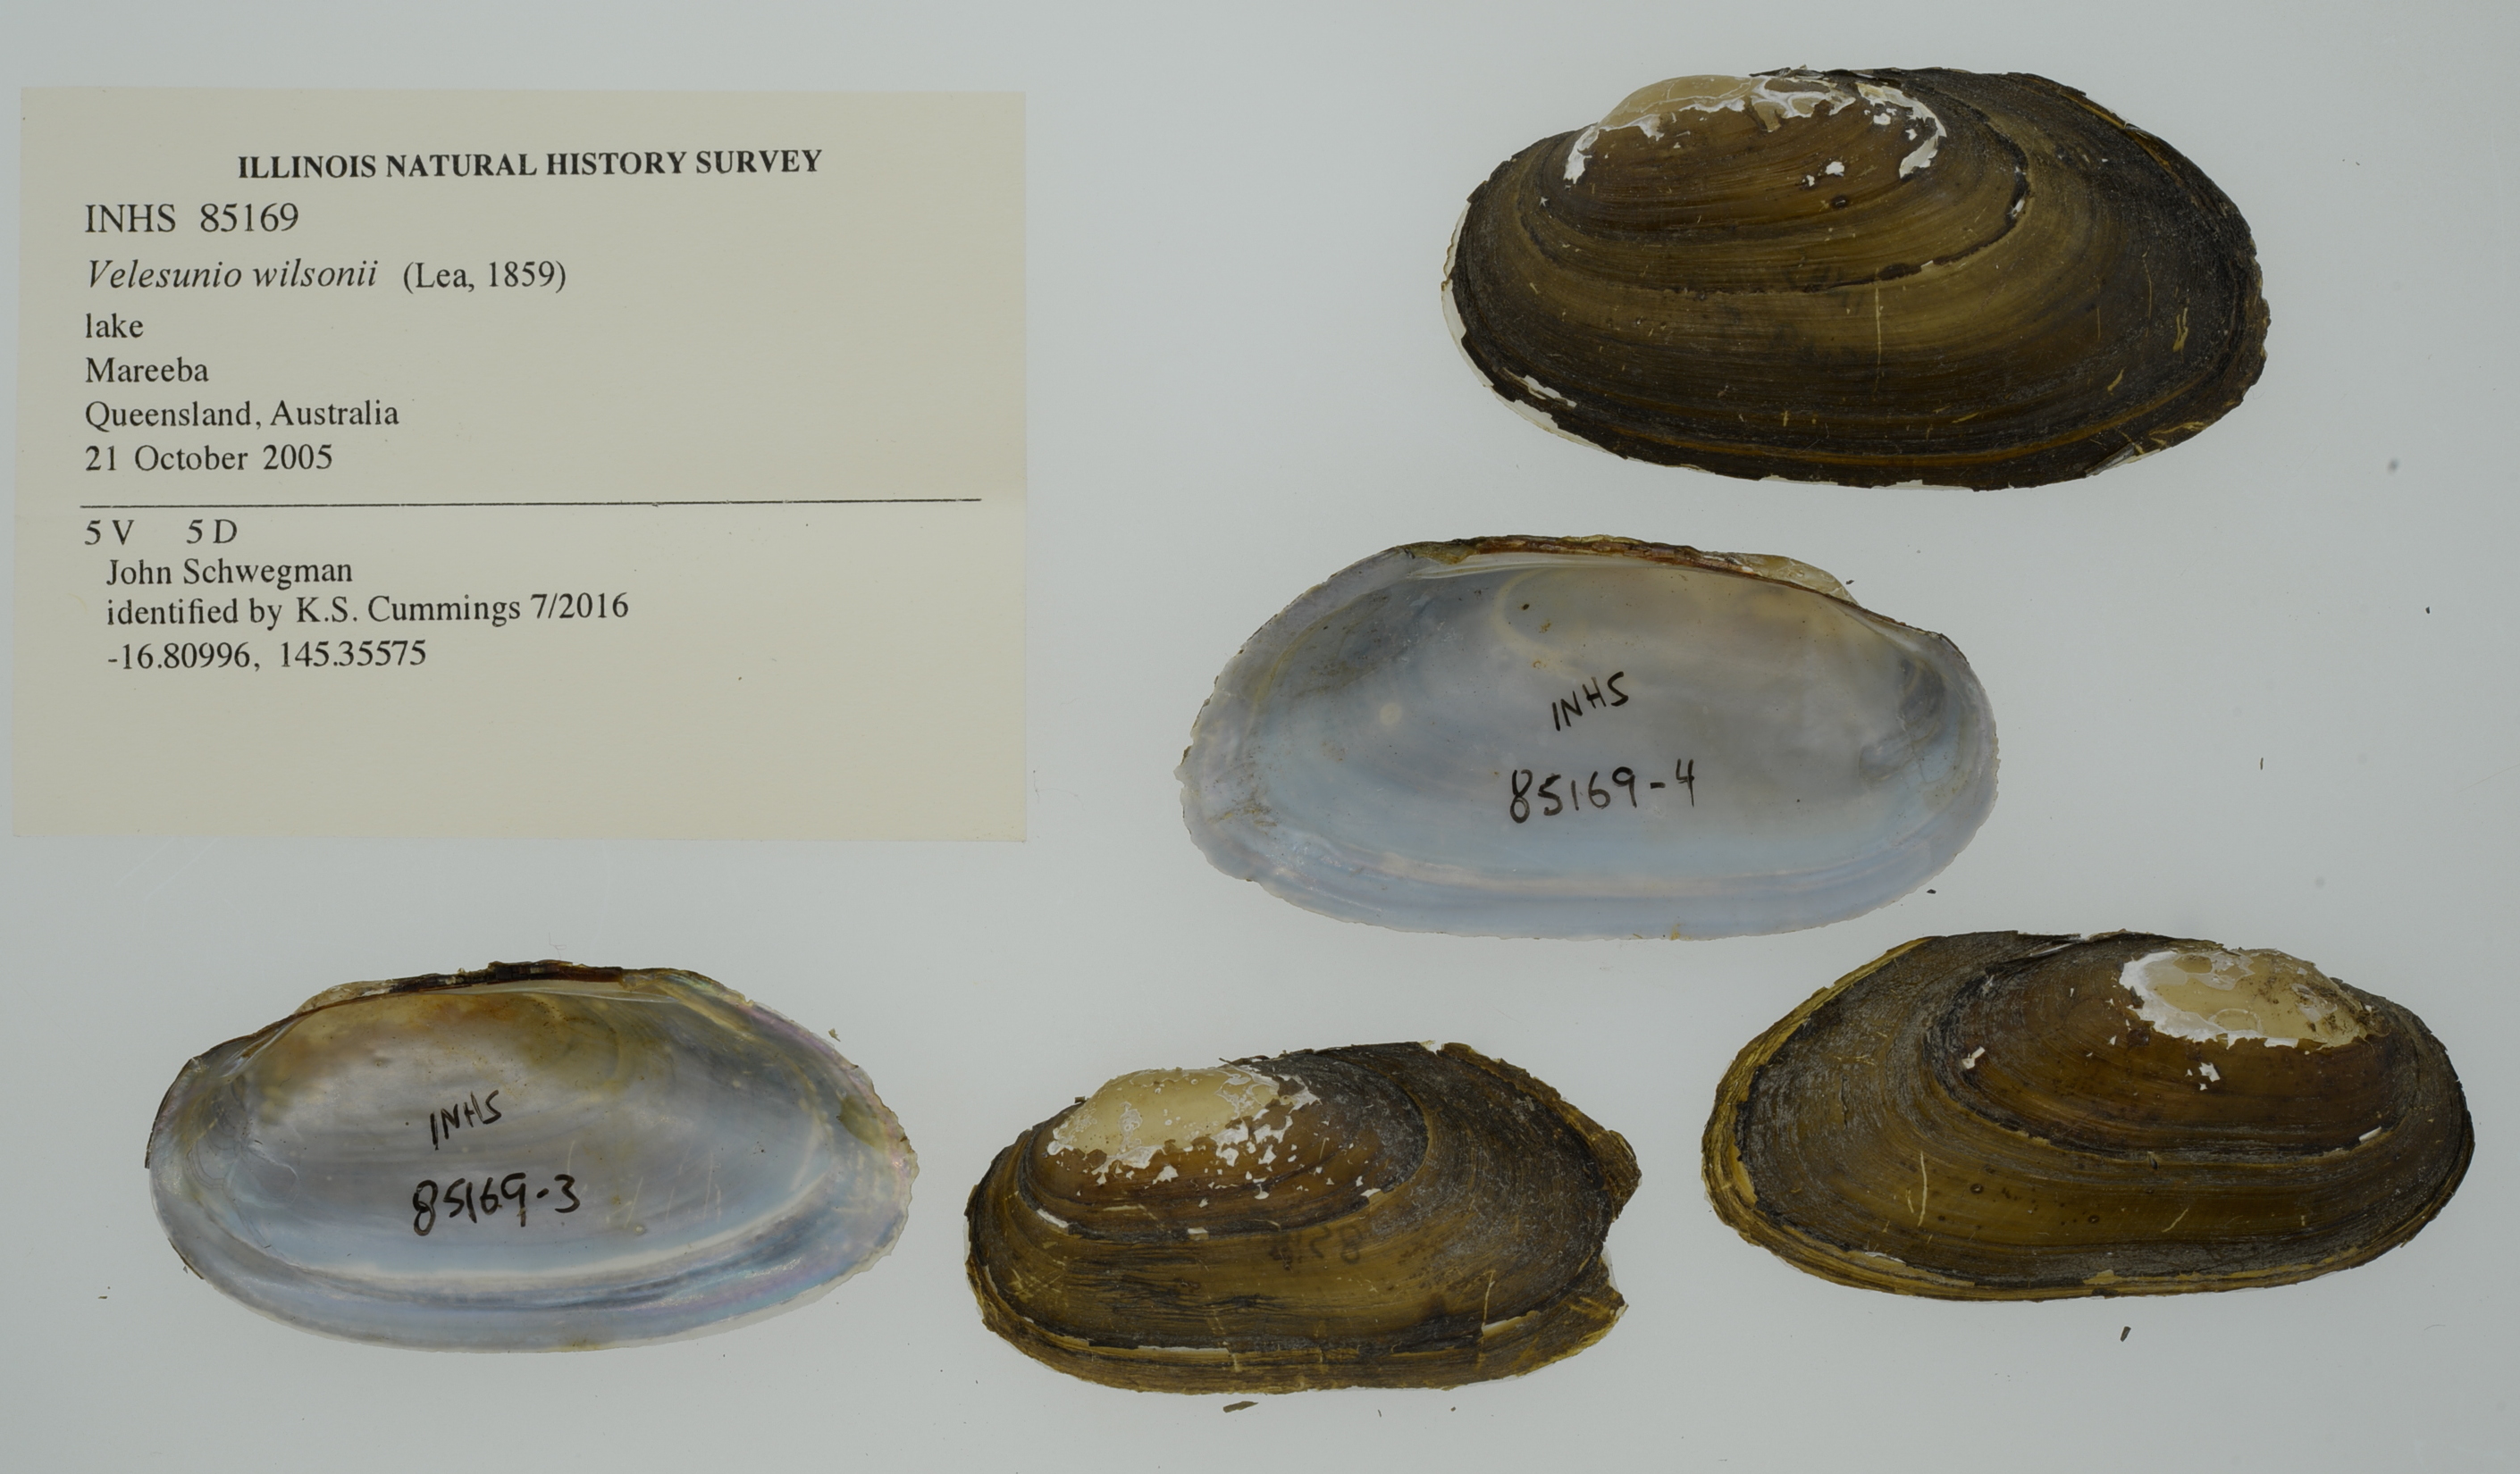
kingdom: Animalia
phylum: Mollusca
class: Bivalvia
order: Unionida
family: Hyriidae
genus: Velesunio
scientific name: Velesunio wilsonii
